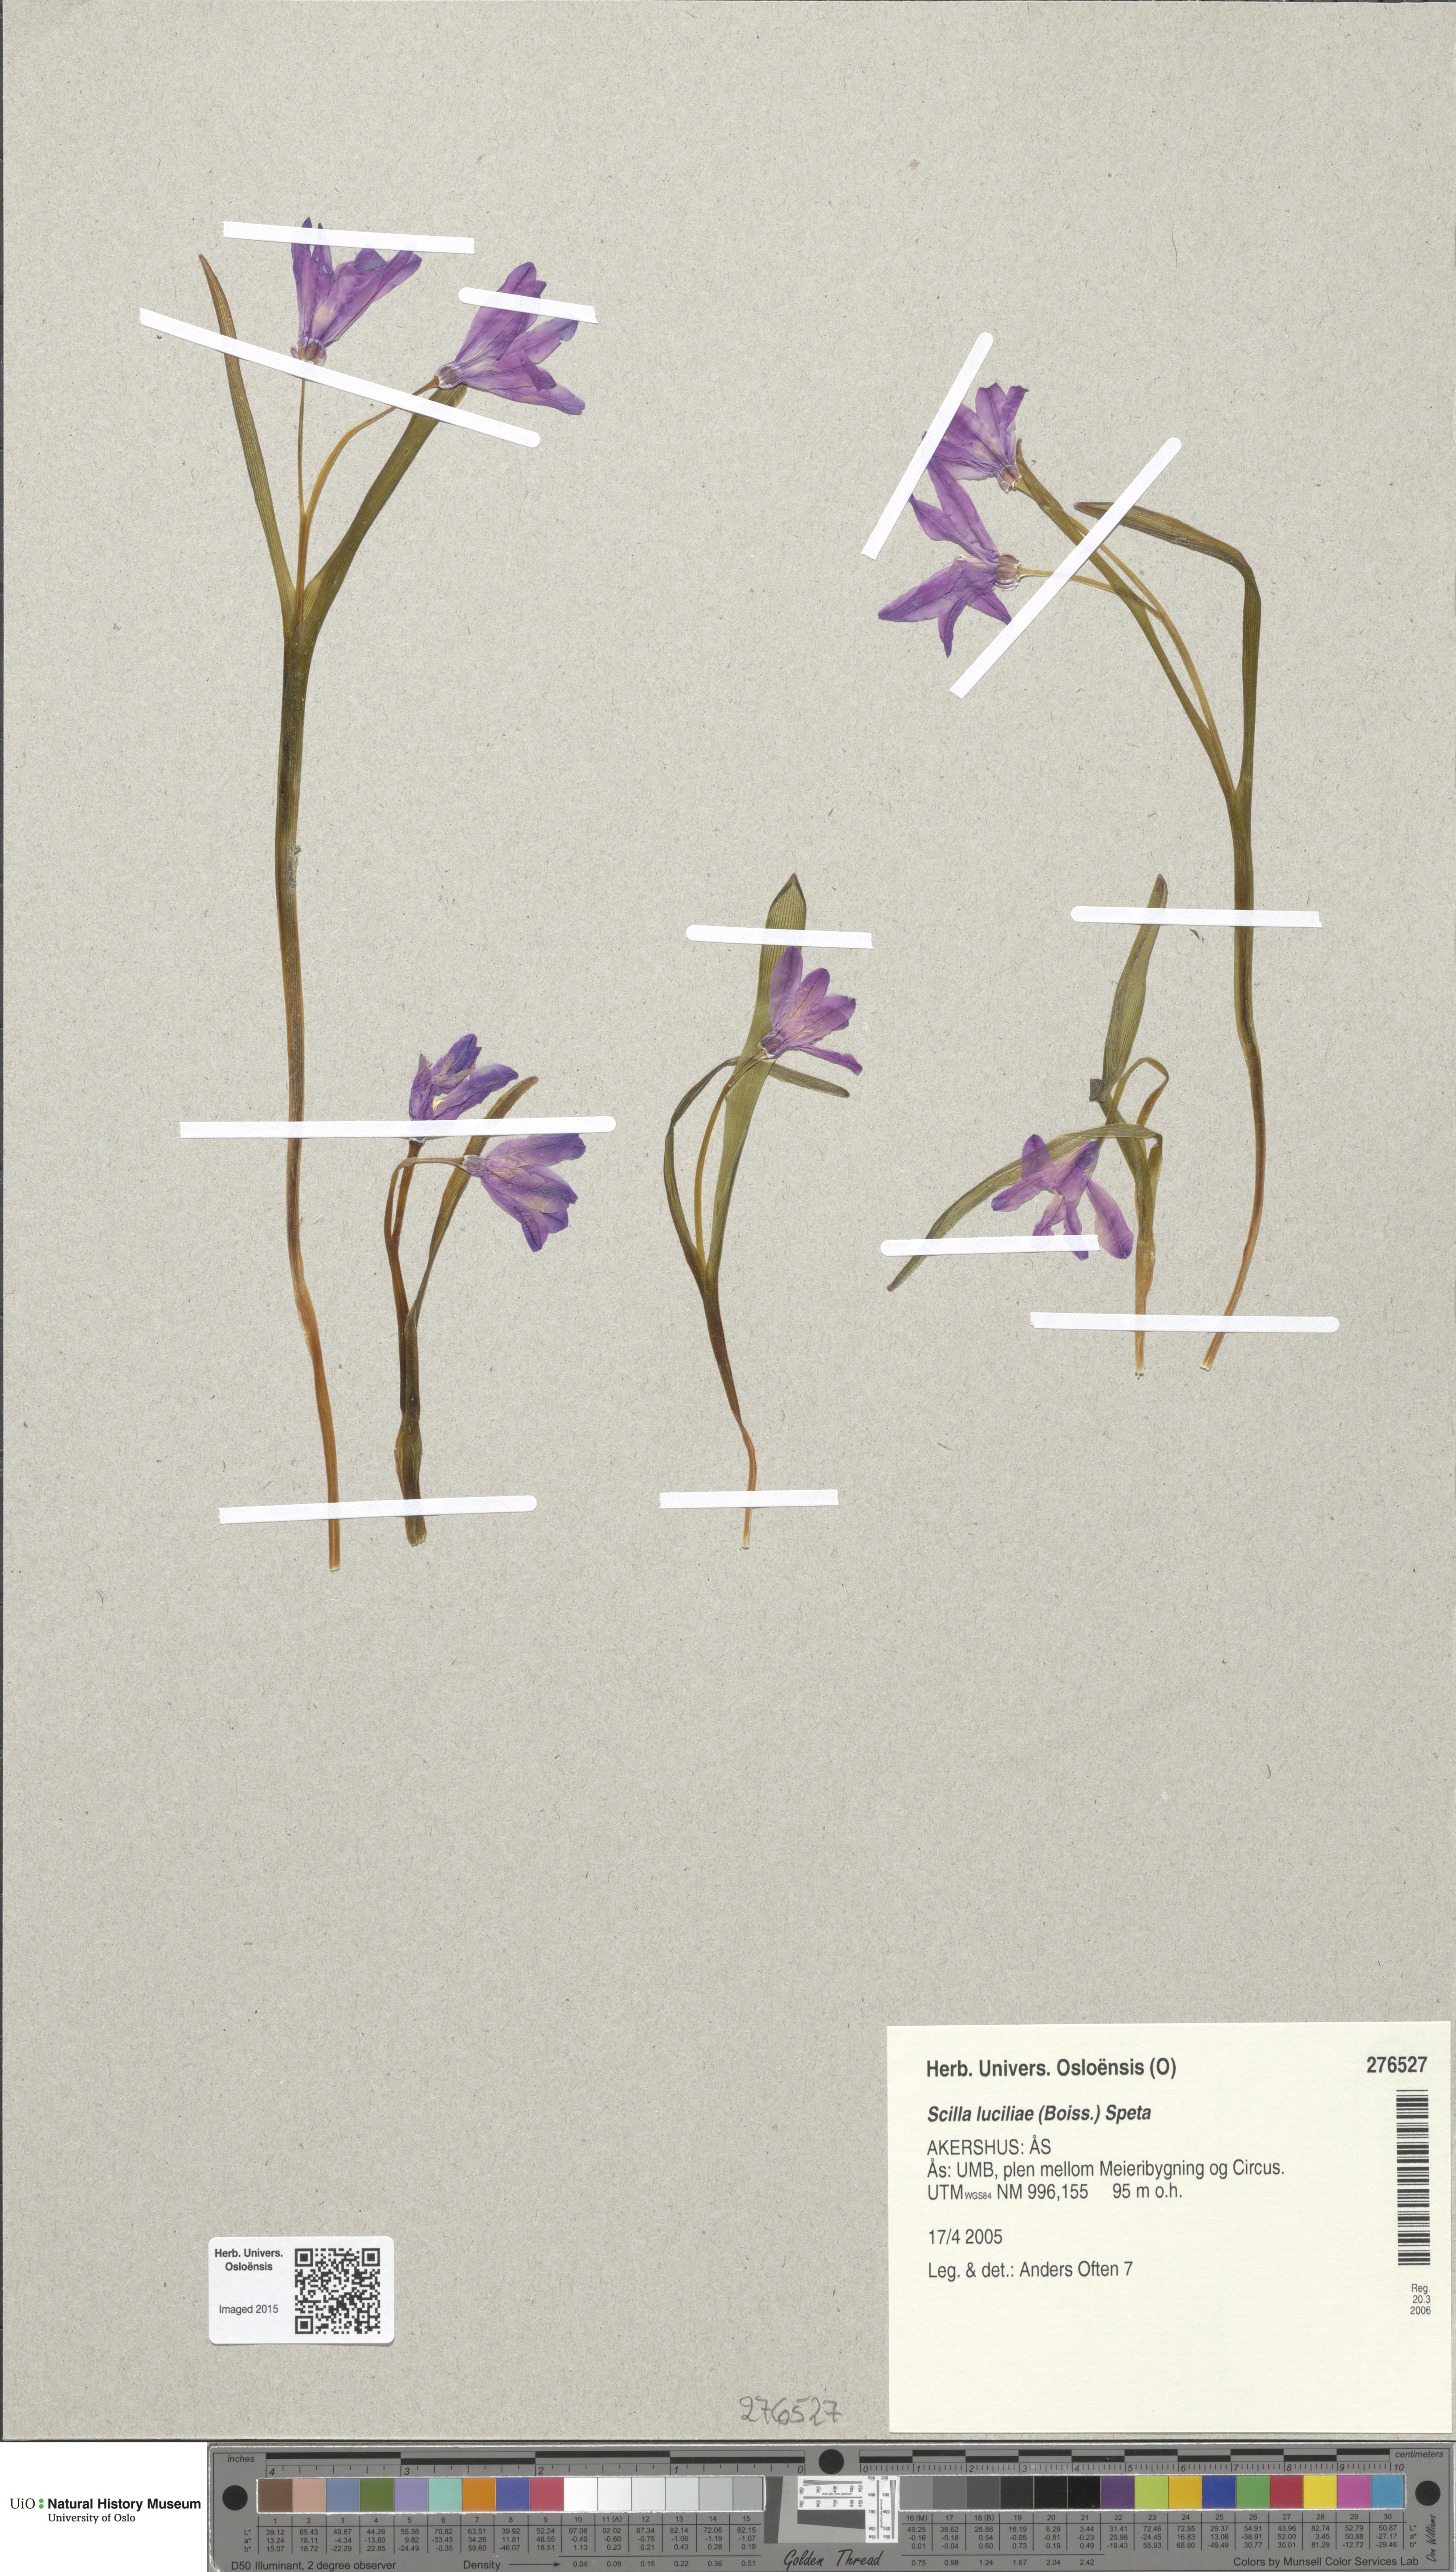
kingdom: Plantae
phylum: Tracheophyta
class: Liliopsida
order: Asparagales
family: Asparagaceae
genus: Scilla
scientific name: Scilla luciliae
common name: Boissier's glory-of-the-snow
